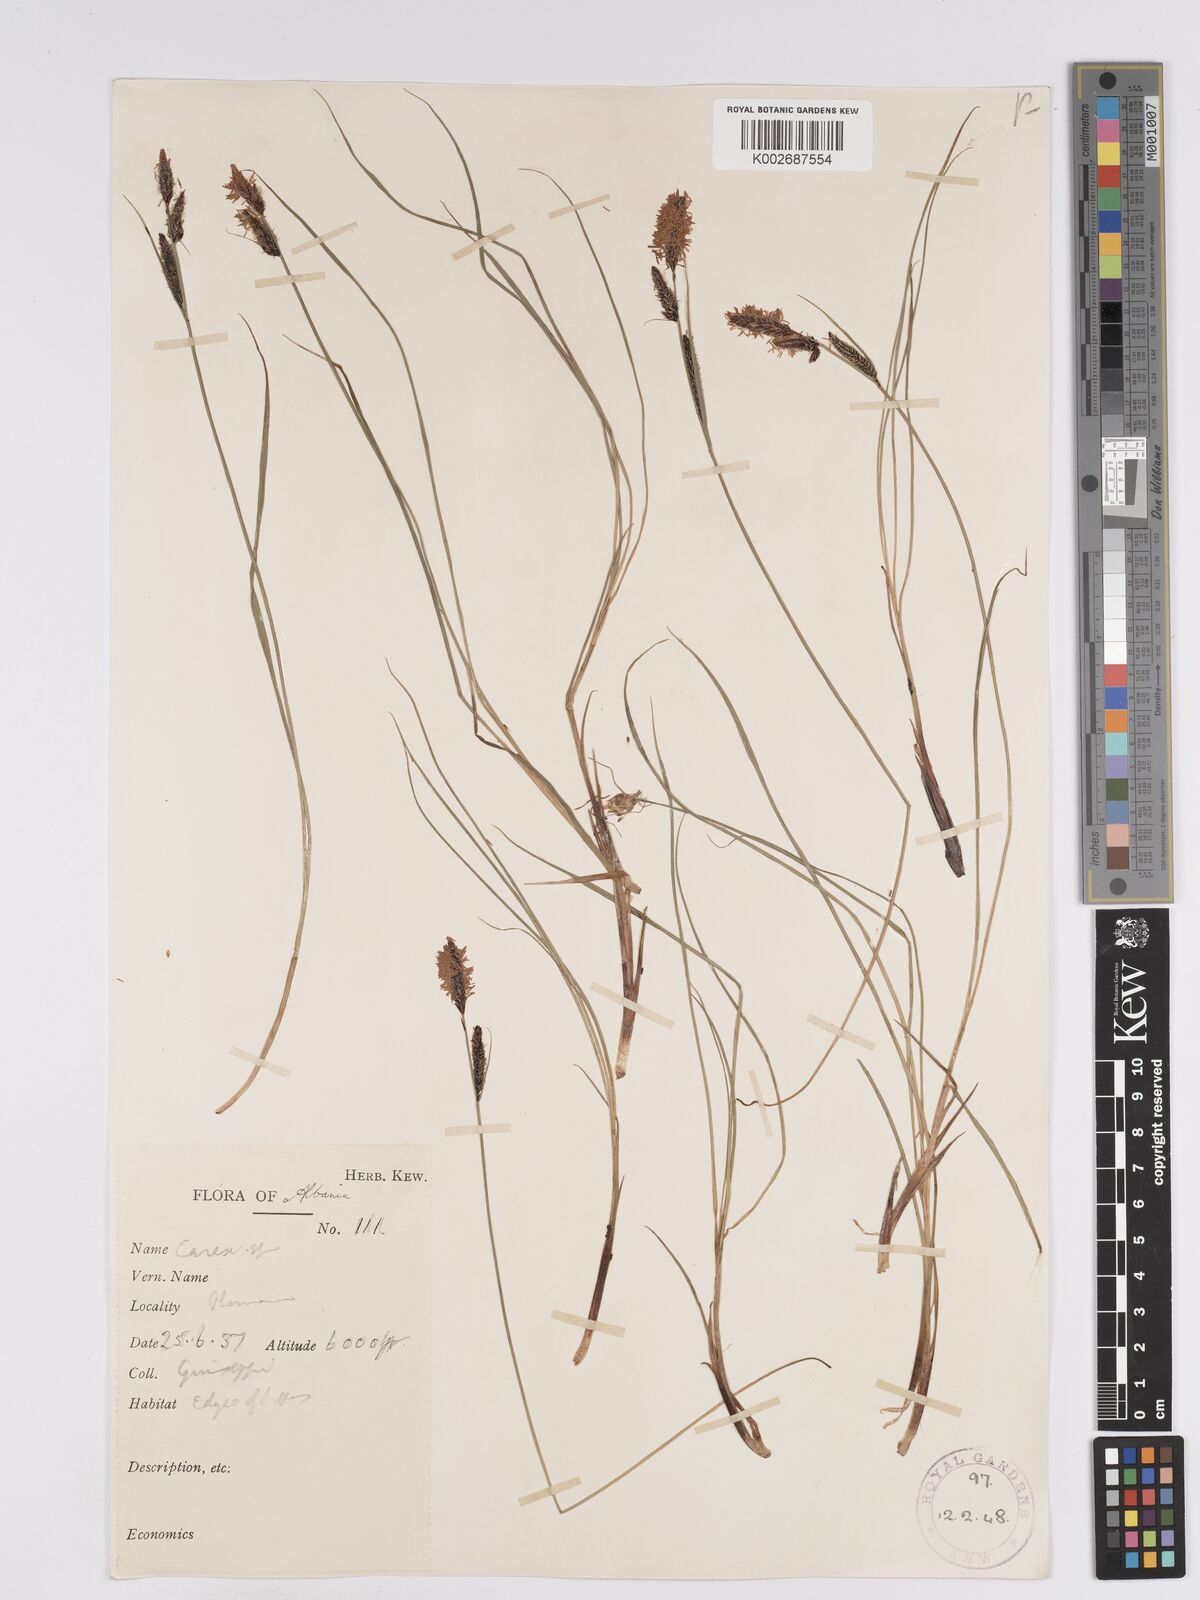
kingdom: Plantae
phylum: Tracheophyta
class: Liliopsida
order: Poales
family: Cyperaceae
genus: Carex
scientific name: Carex nigra
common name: Common sedge
